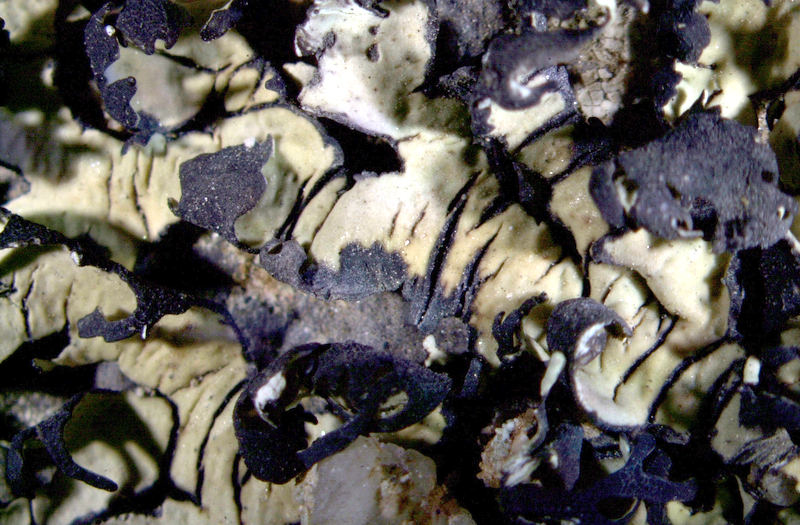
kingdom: Fungi
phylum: Ascomycota
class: Lecanoromycetes
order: Lecanorales
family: Parmeliaceae
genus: Xanthoparmelia
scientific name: Xanthoparmelia walteri
